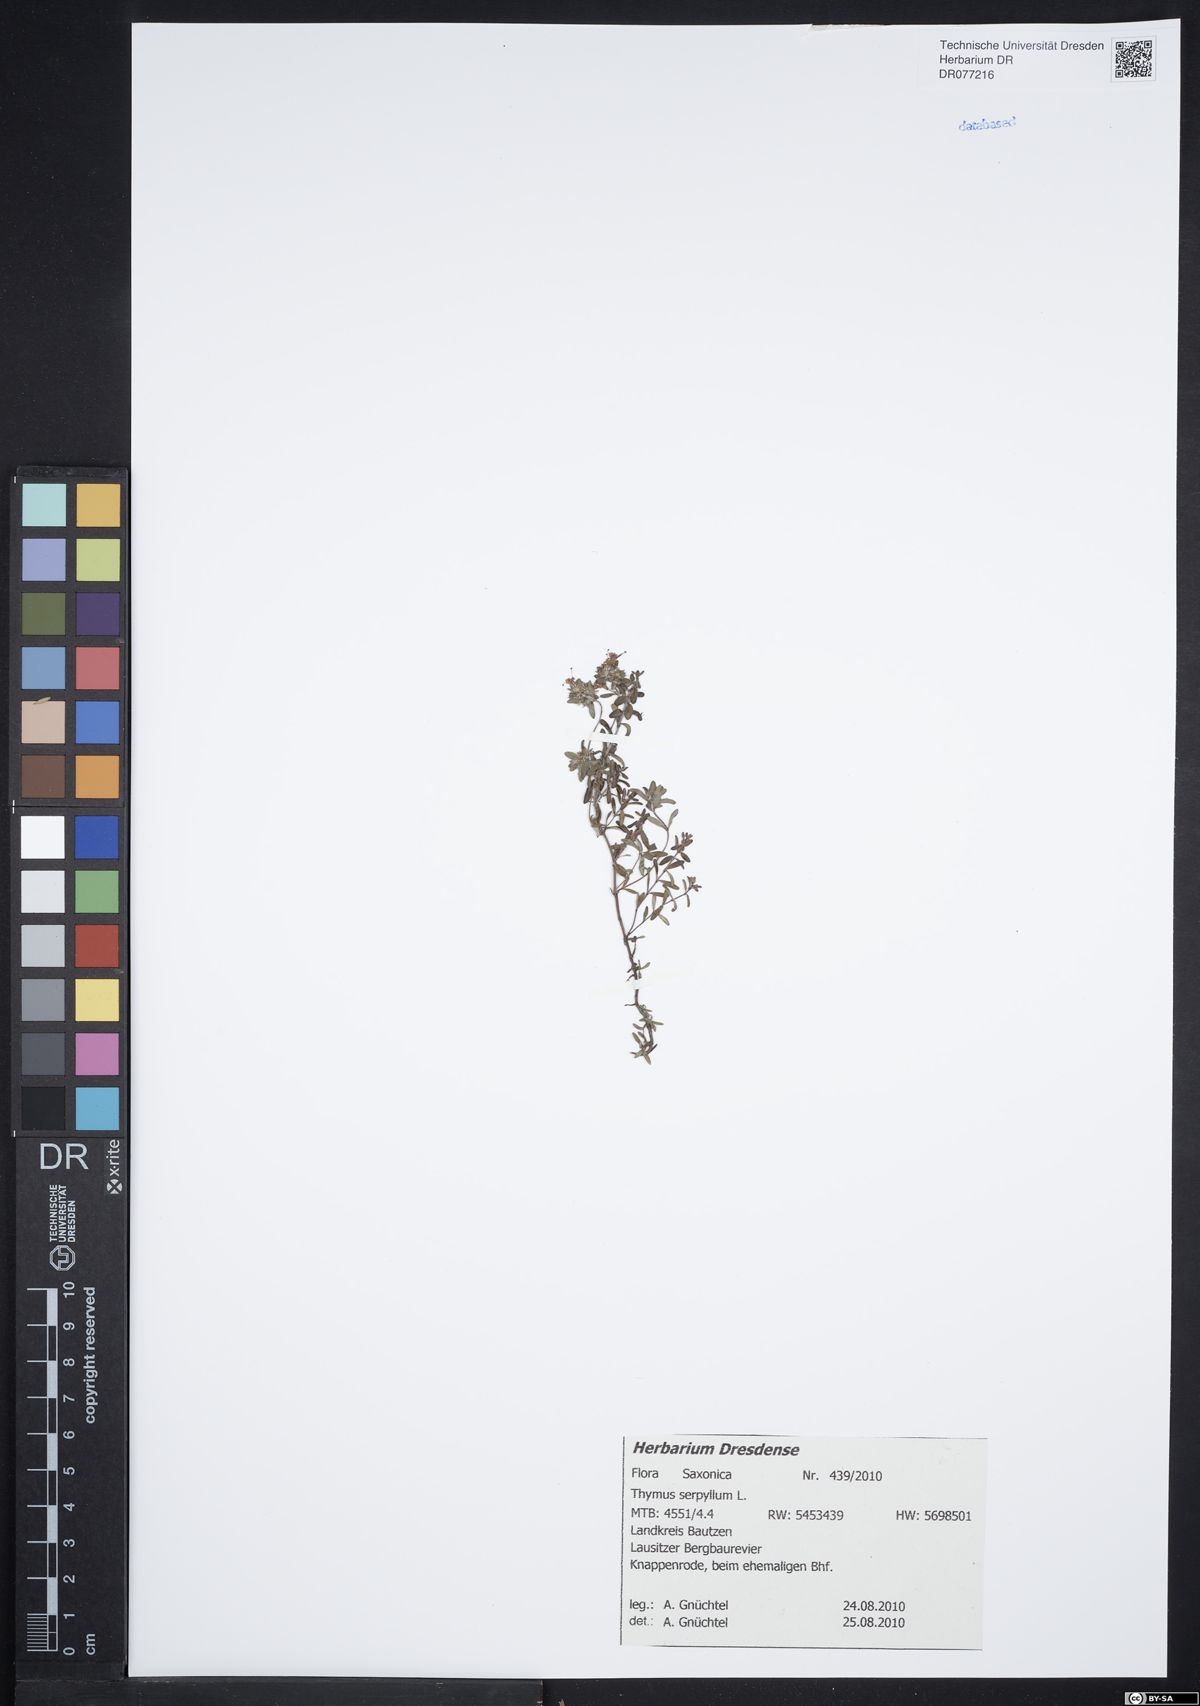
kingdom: Plantae
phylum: Tracheophyta
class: Magnoliopsida
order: Lamiales
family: Lamiaceae
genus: Thymus
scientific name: Thymus serpyllum
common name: Breckland thyme
